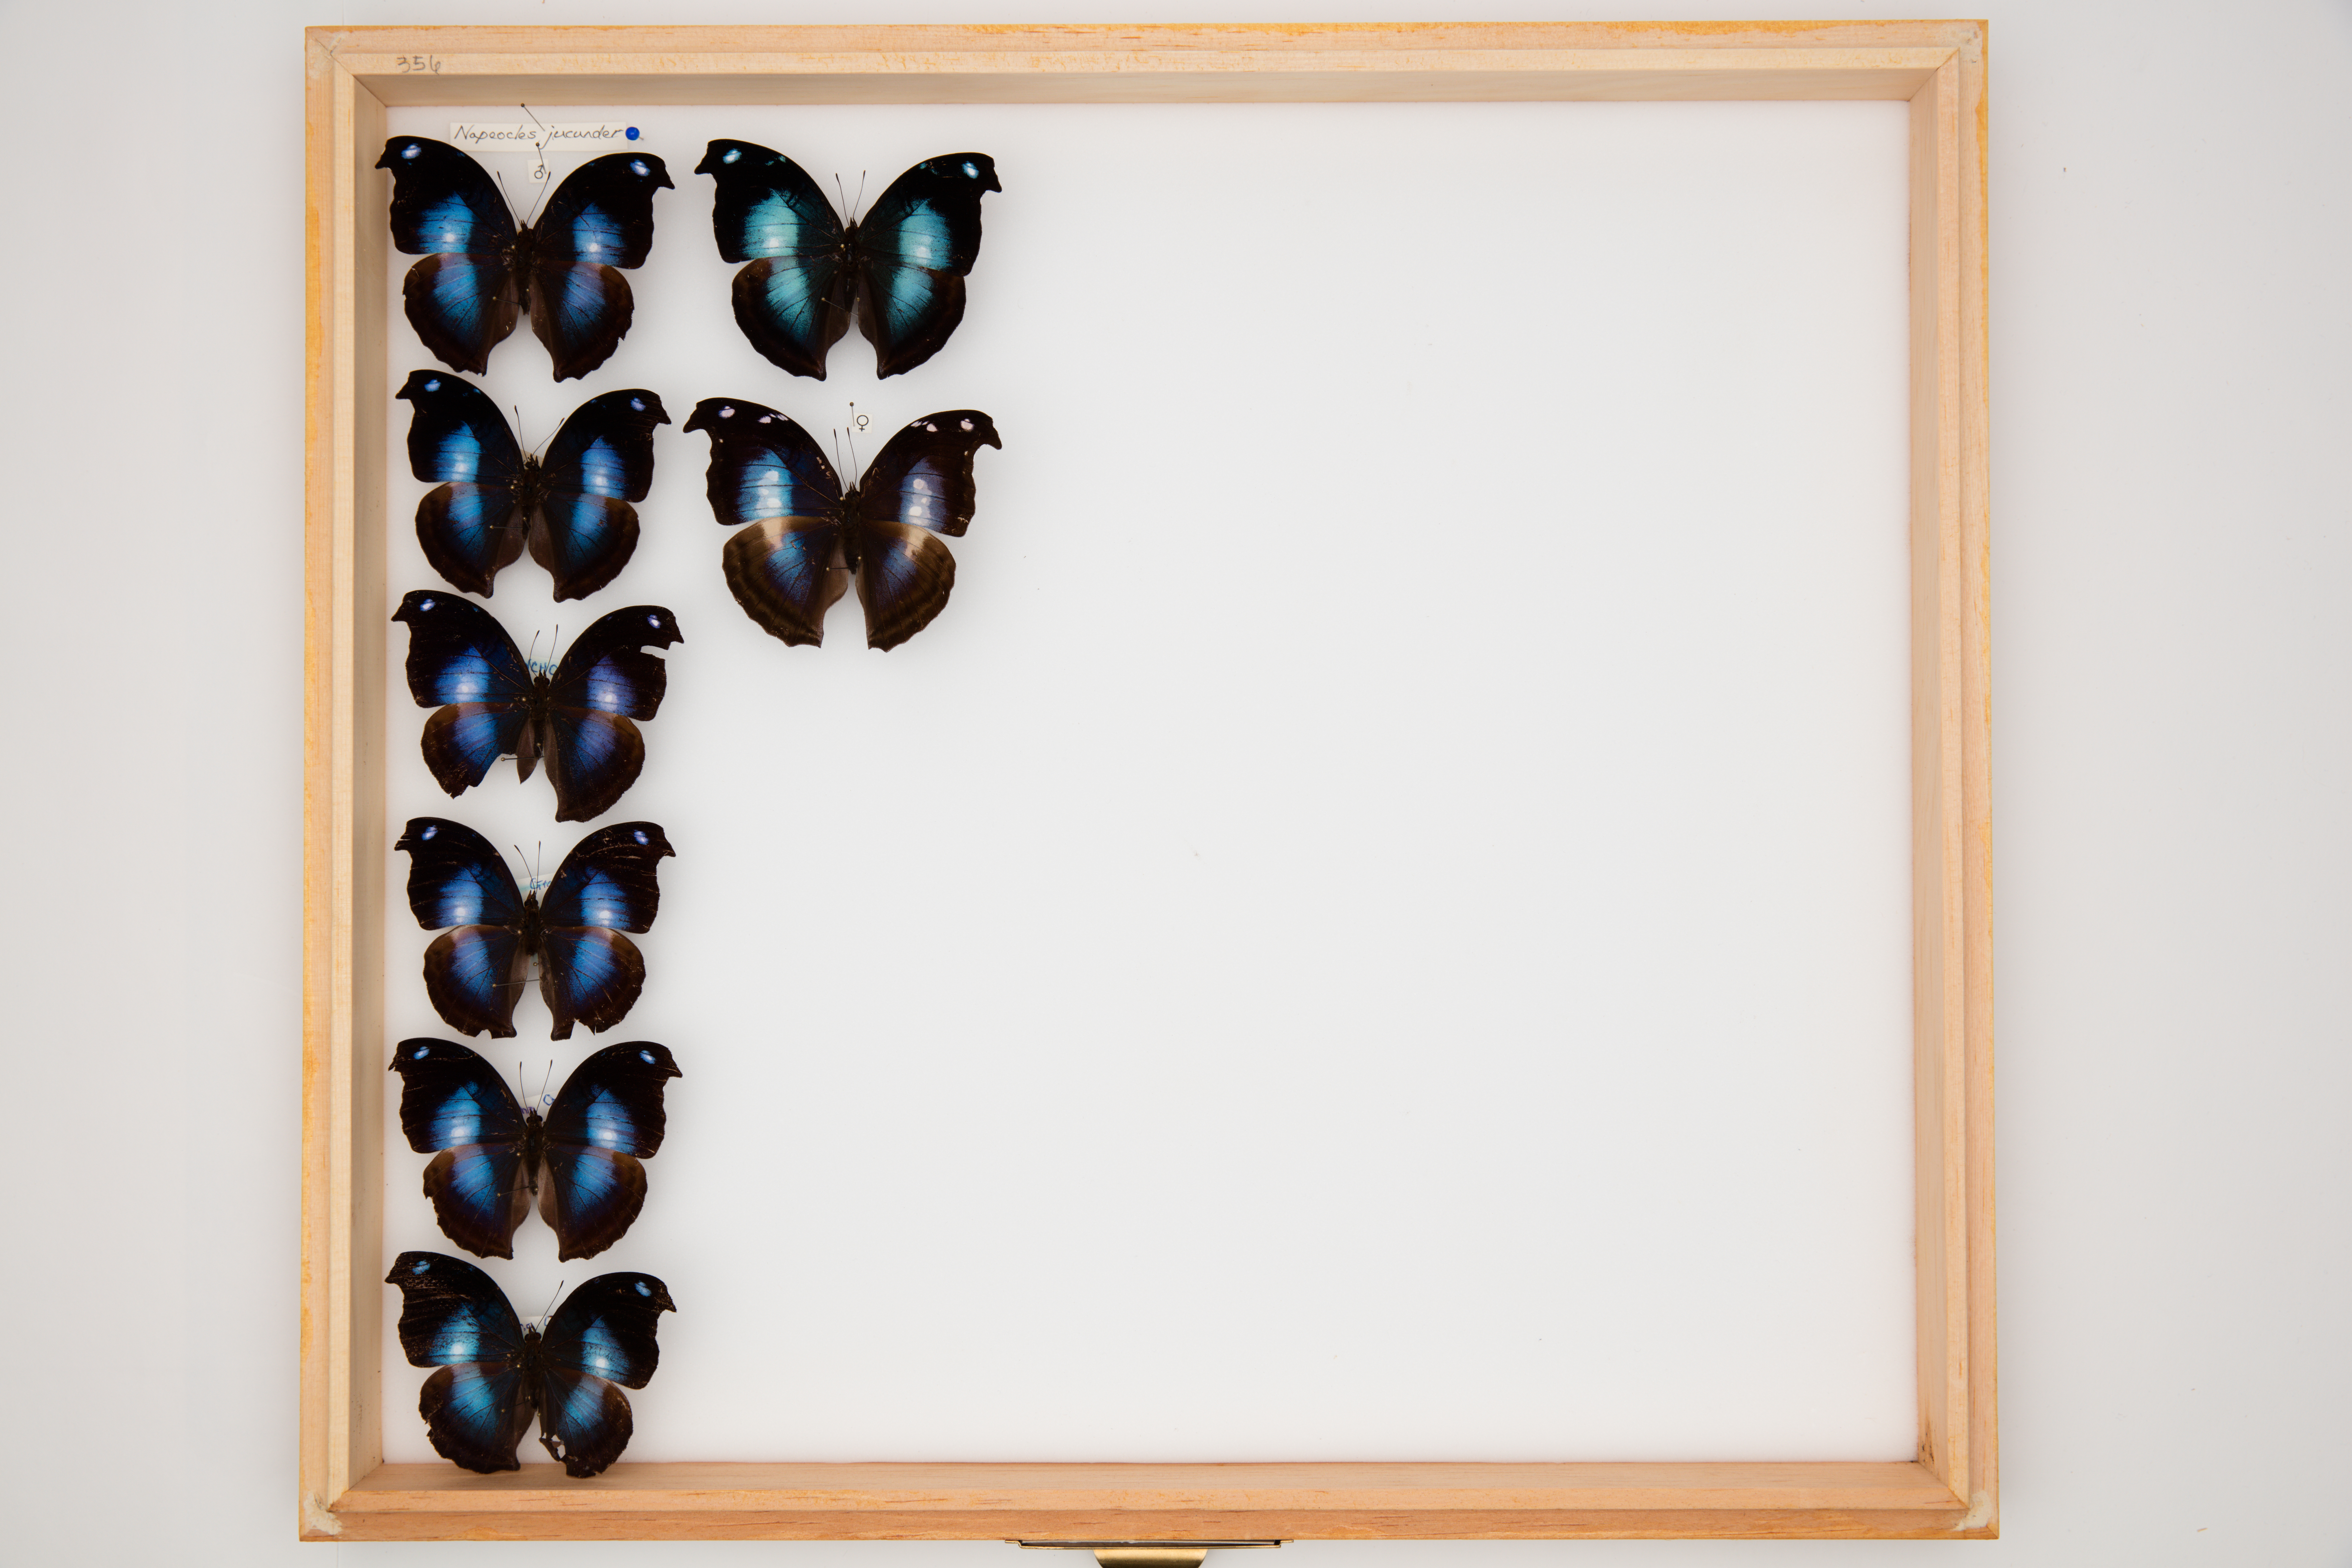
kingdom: Animalia
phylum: Arthropoda
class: Insecta
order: Lepidoptera
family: Nymphalidae
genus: Napeocles
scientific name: Napeocles jucunda
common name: Great blue hookwing
